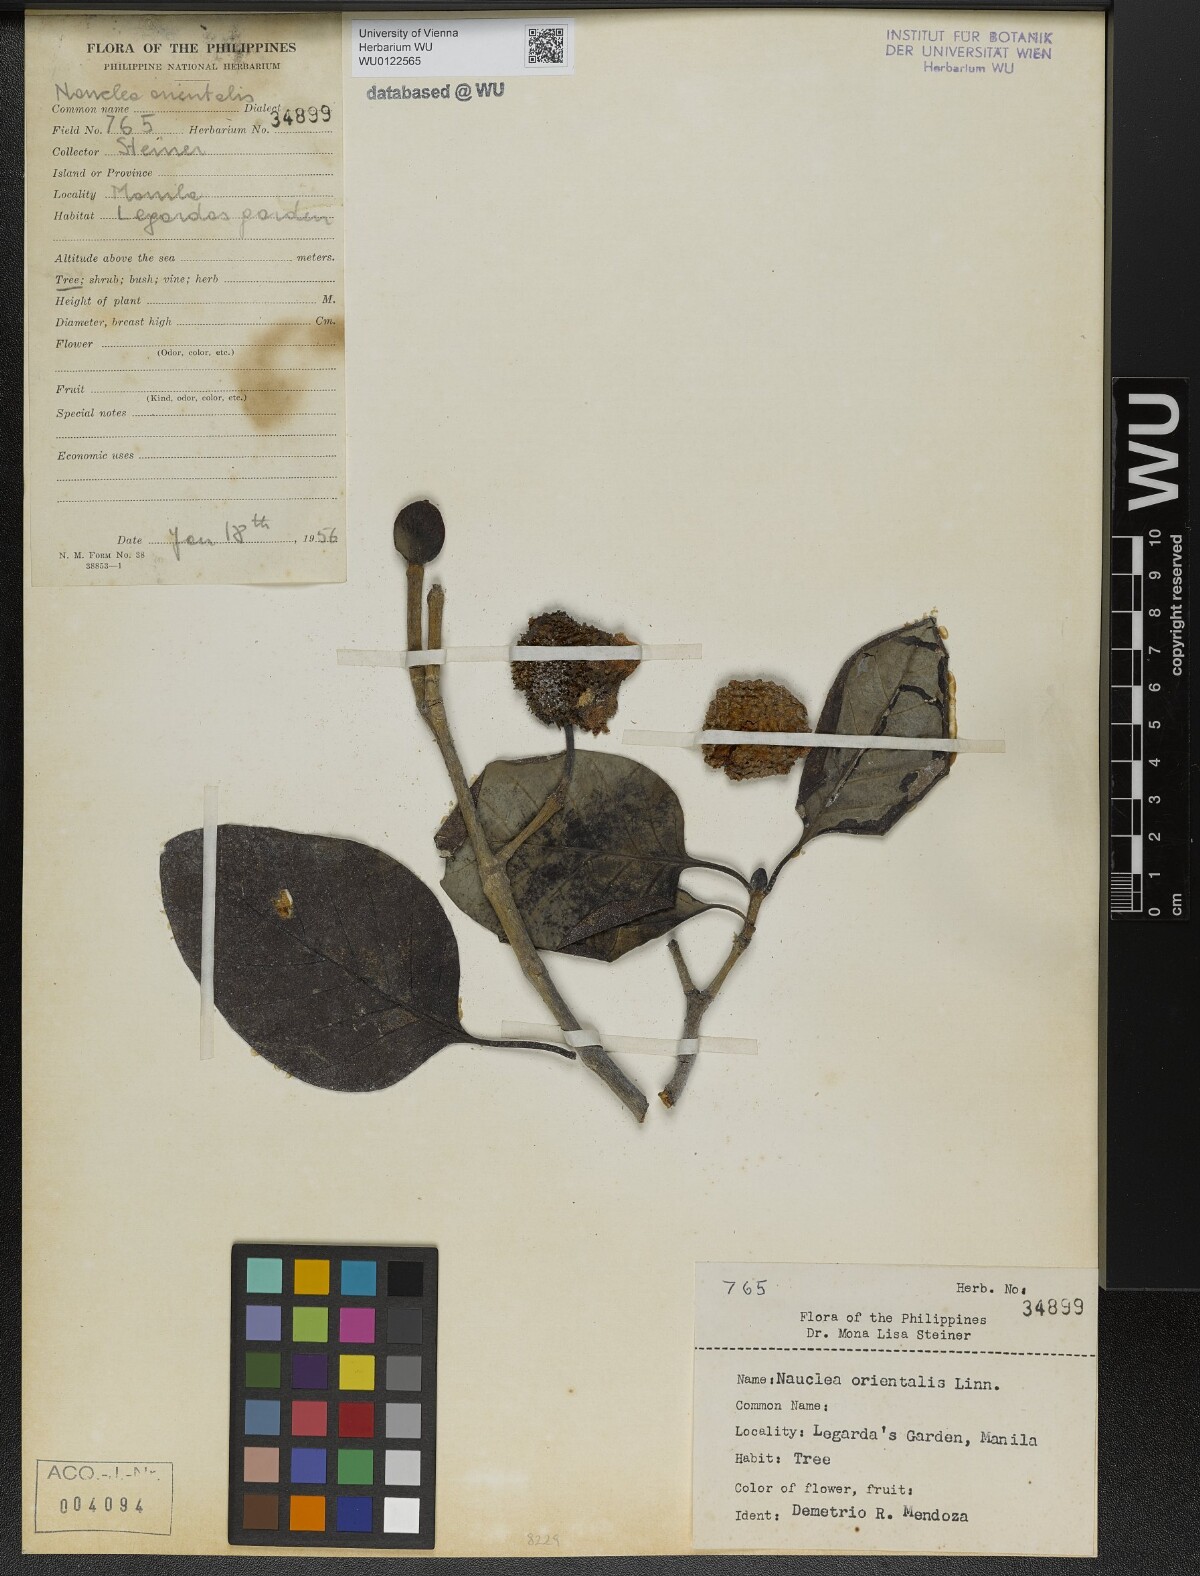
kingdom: Plantae
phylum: Tracheophyta
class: Magnoliopsida
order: Gentianales
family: Rubiaceae
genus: Nauclea
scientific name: Nauclea orientalis
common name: Leichhardt-pine
